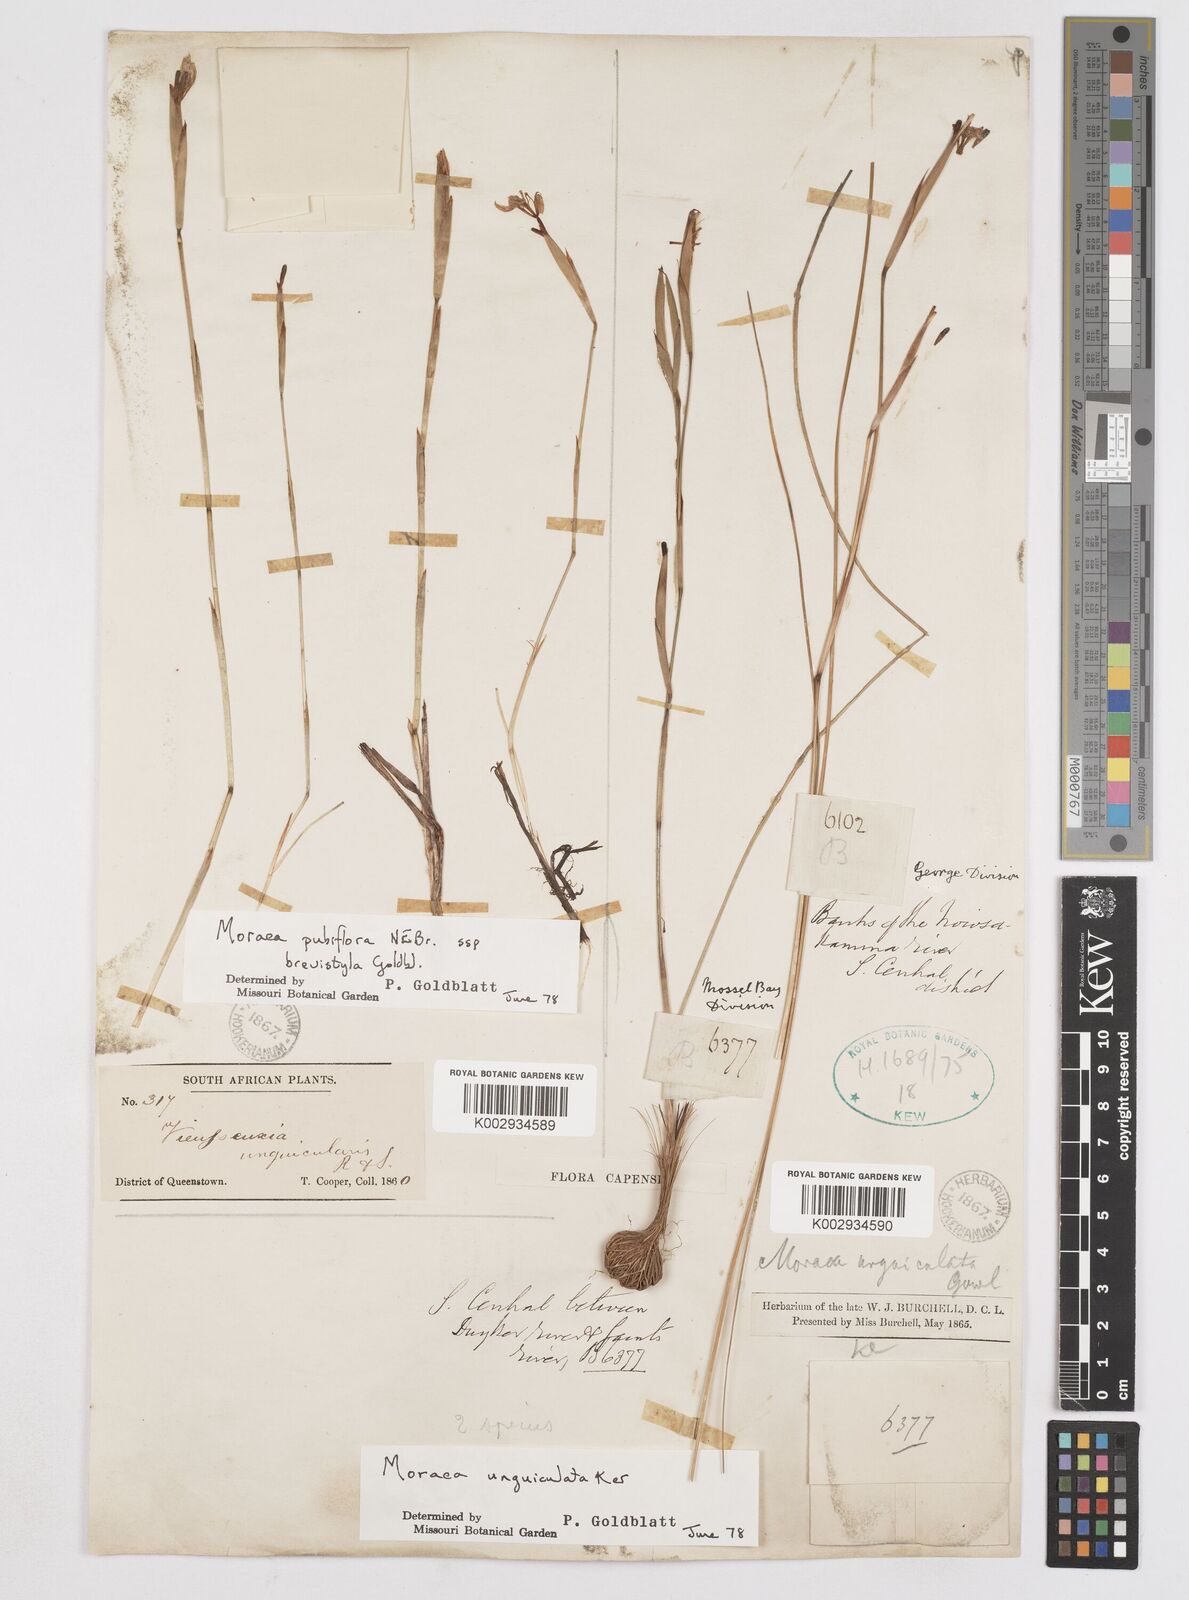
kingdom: Plantae
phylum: Tracheophyta
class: Liliopsida
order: Asparagales
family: Iridaceae
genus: Moraea
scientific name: Moraea brevistyla
